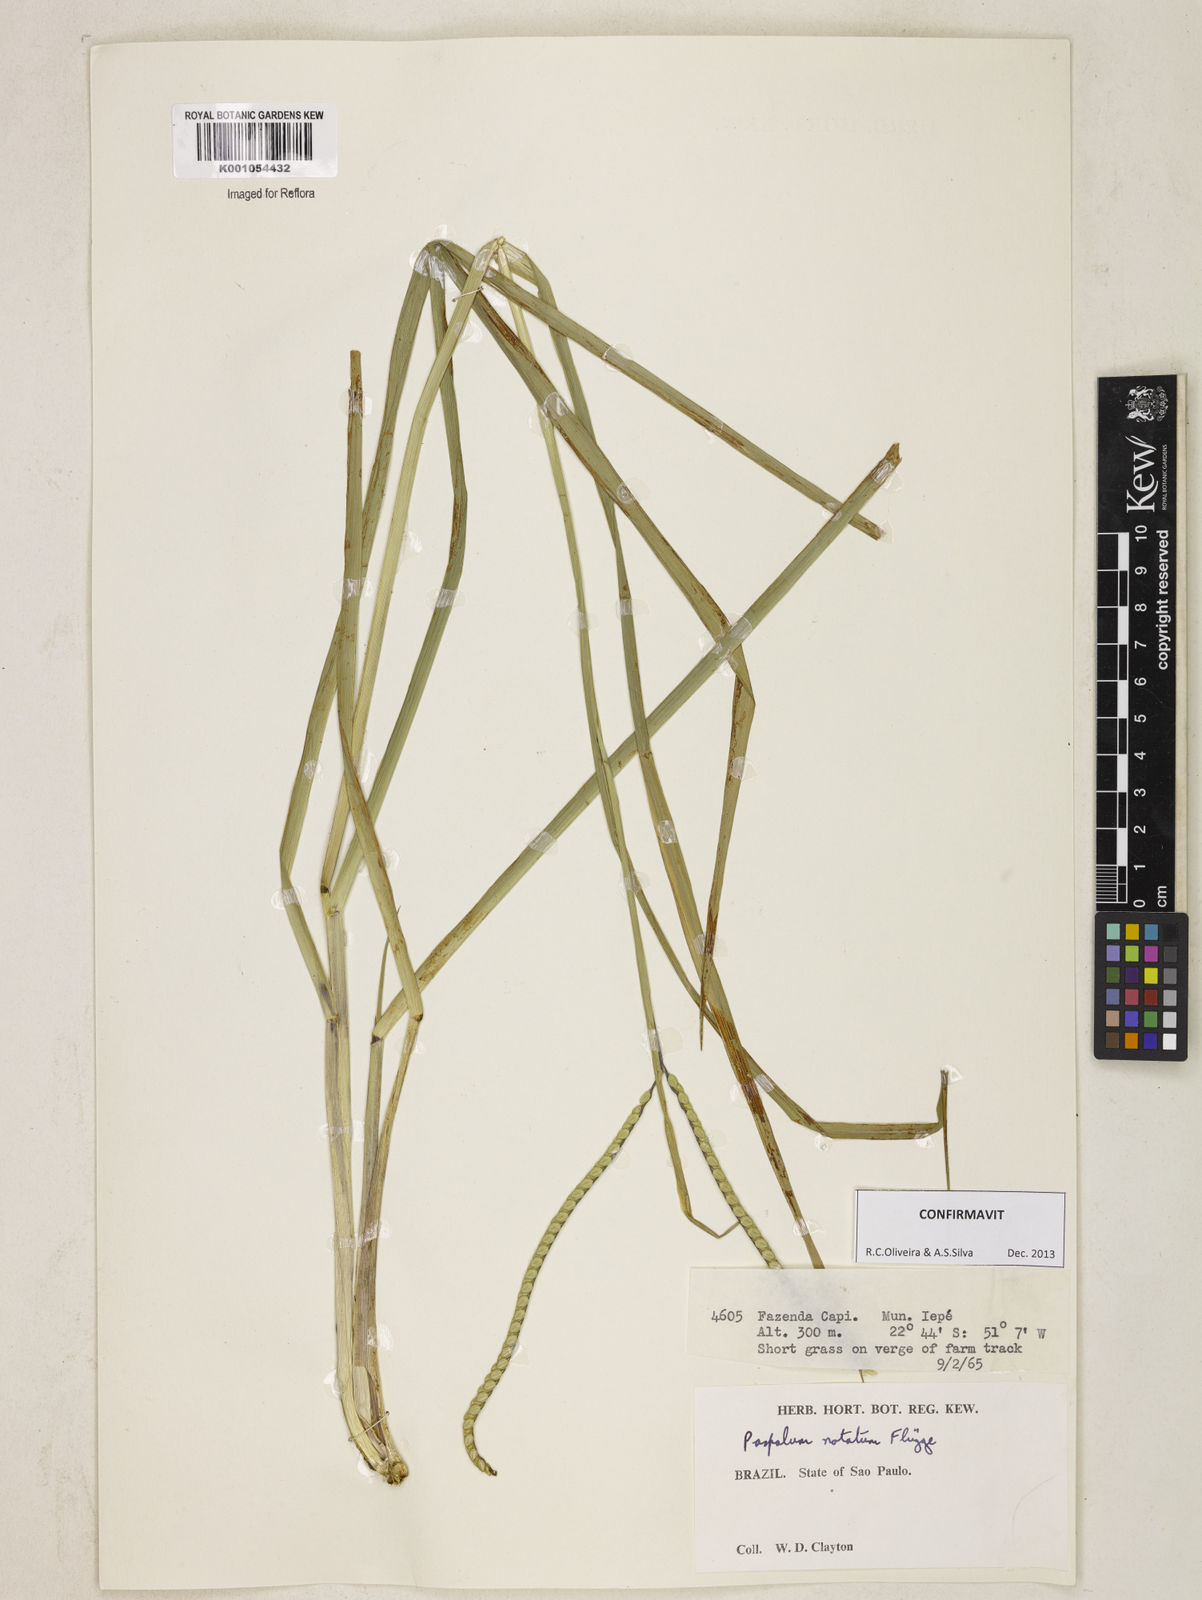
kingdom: Plantae
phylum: Tracheophyta
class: Liliopsida
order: Poales
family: Poaceae
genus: Paspalum
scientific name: Paspalum
